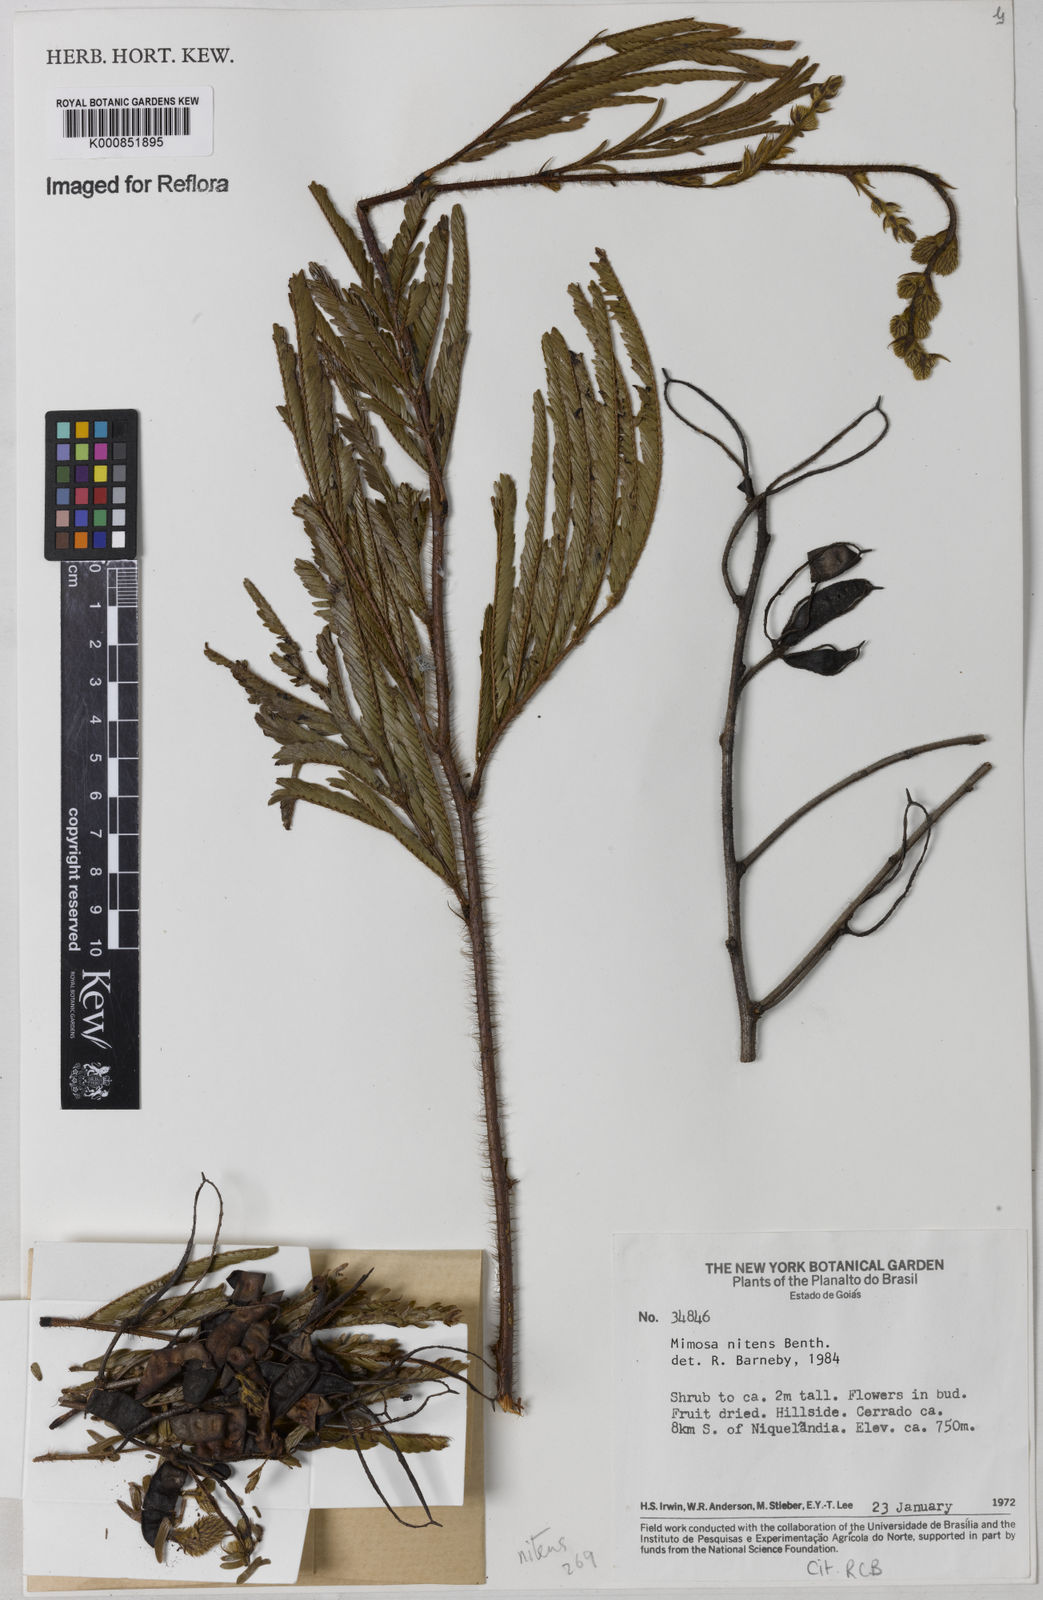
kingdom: Plantae
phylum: Tracheophyta
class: Magnoliopsida
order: Fabales
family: Fabaceae
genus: Mimosa
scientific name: Mimosa nitens
